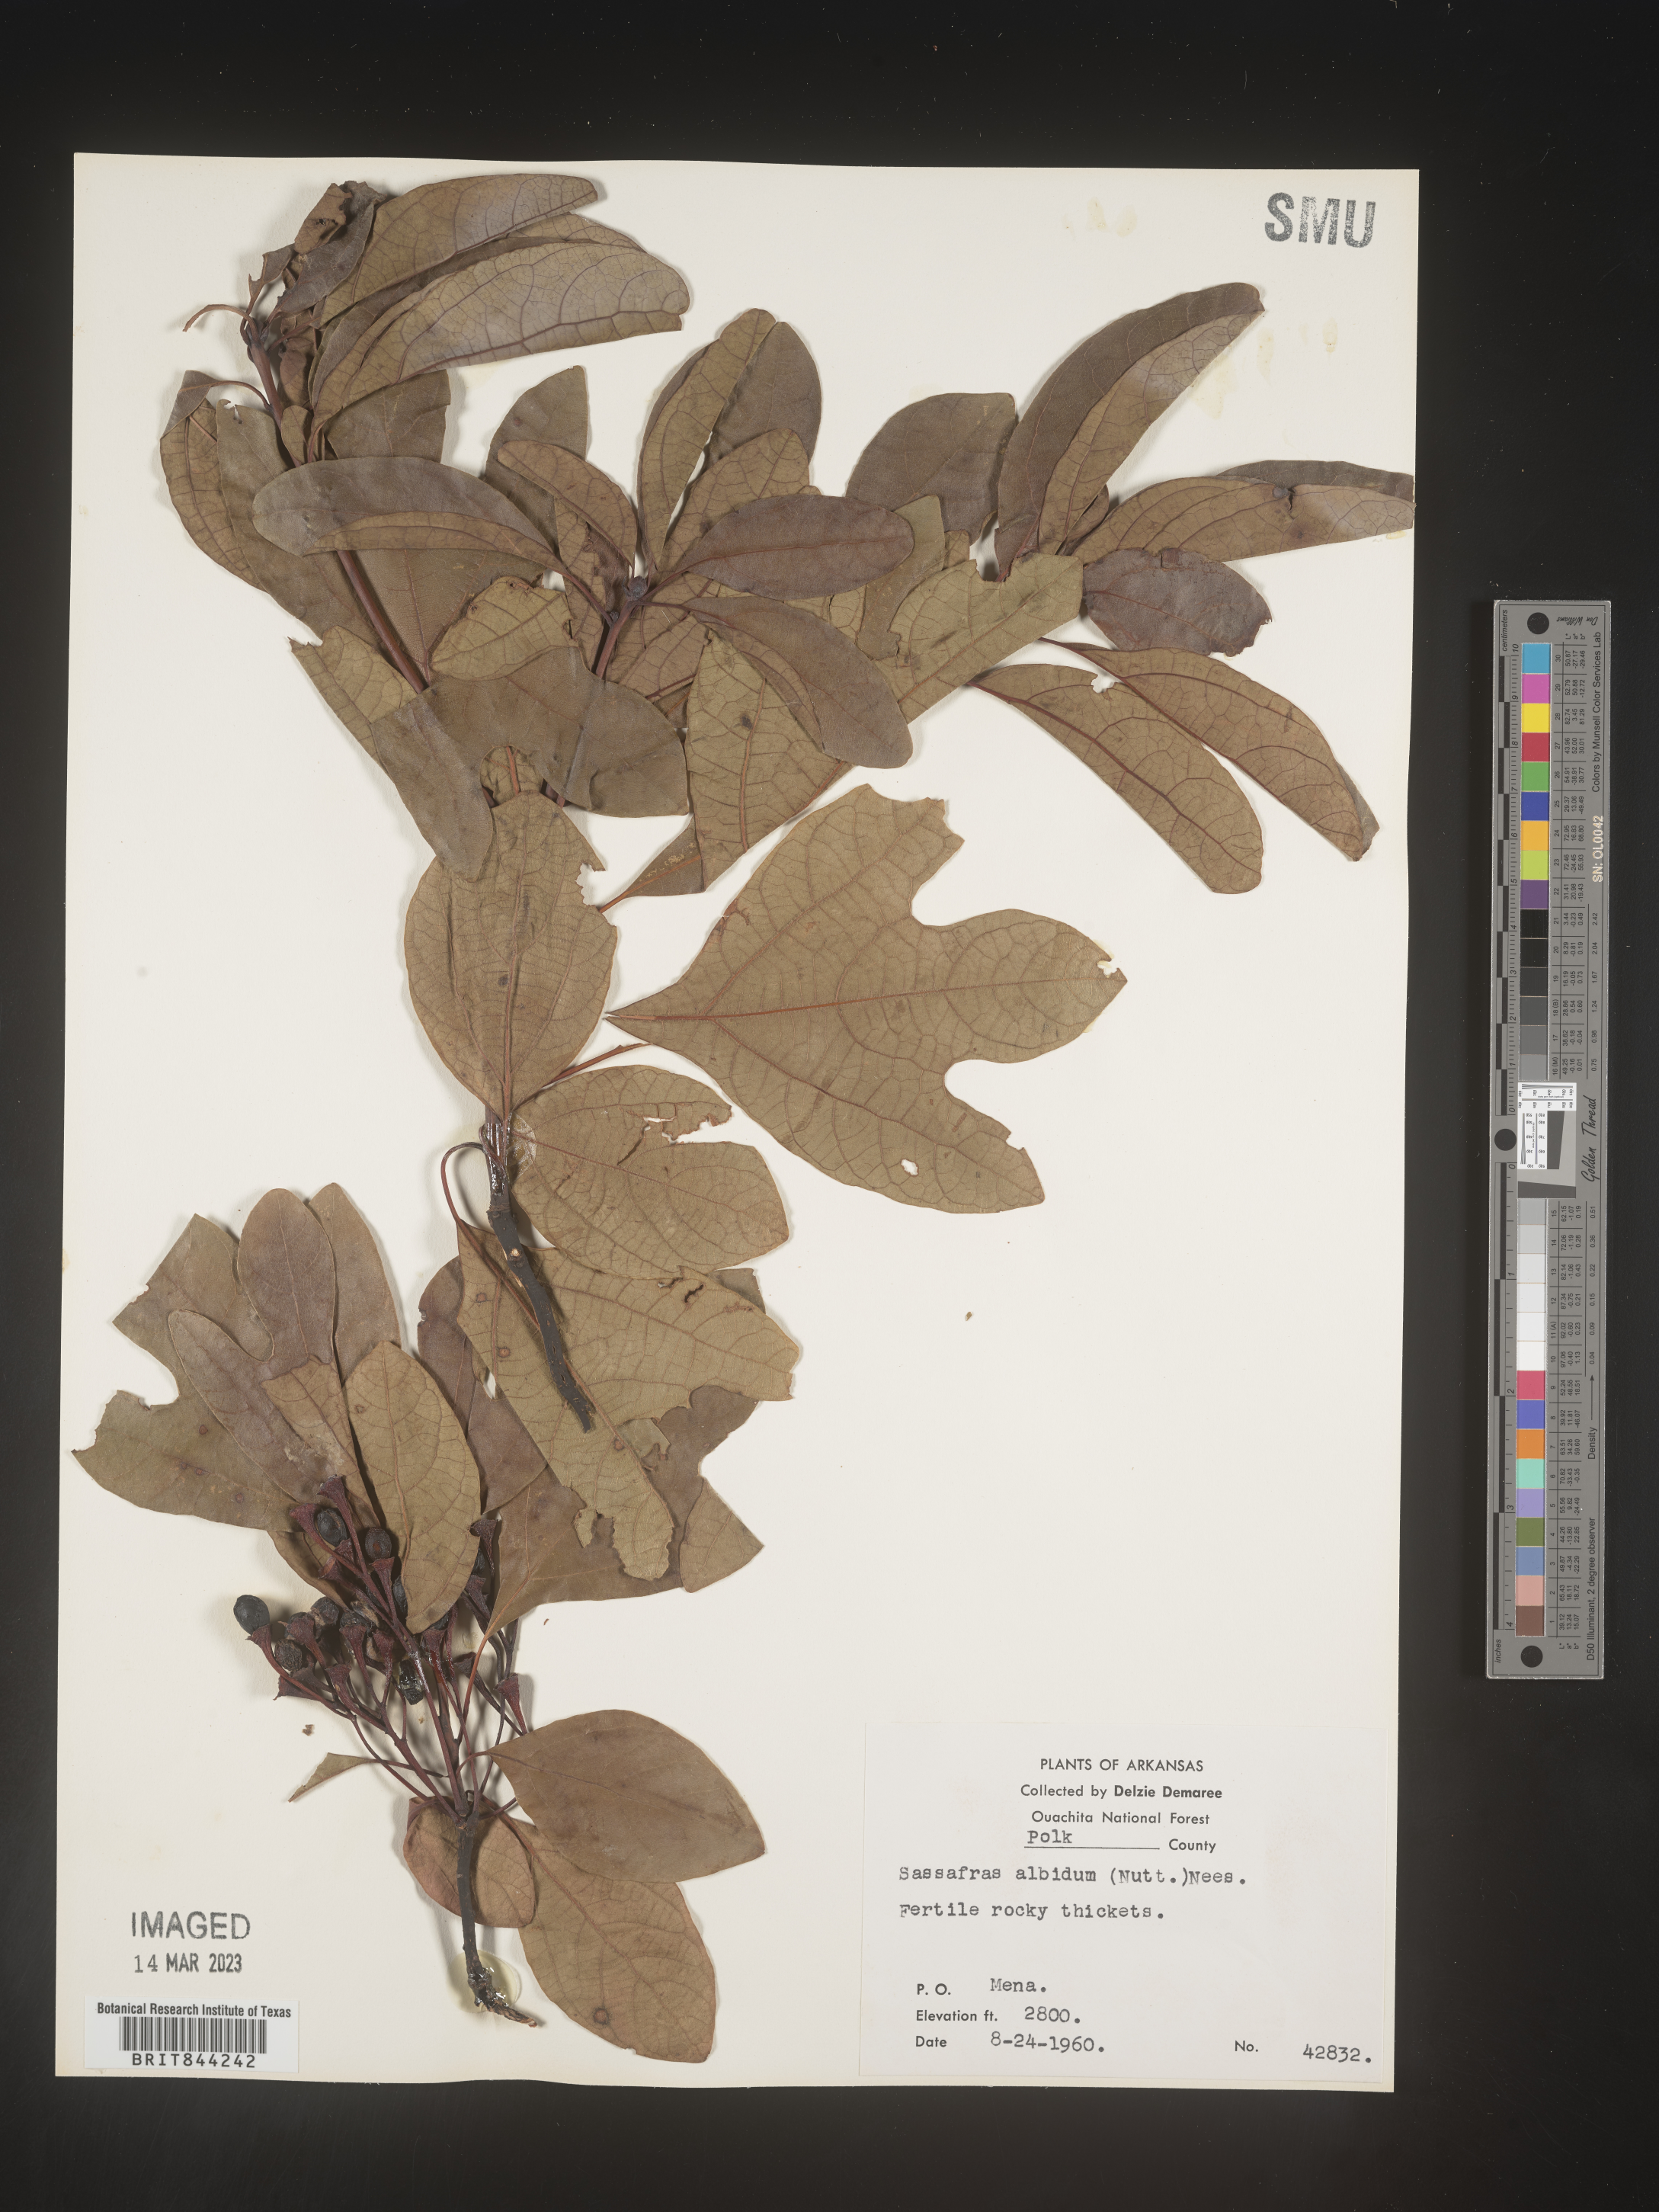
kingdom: Plantae
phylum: Tracheophyta
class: Magnoliopsida
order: Laurales
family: Lauraceae
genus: Sassafras
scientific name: Sassafras albidum
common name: Sassafras
